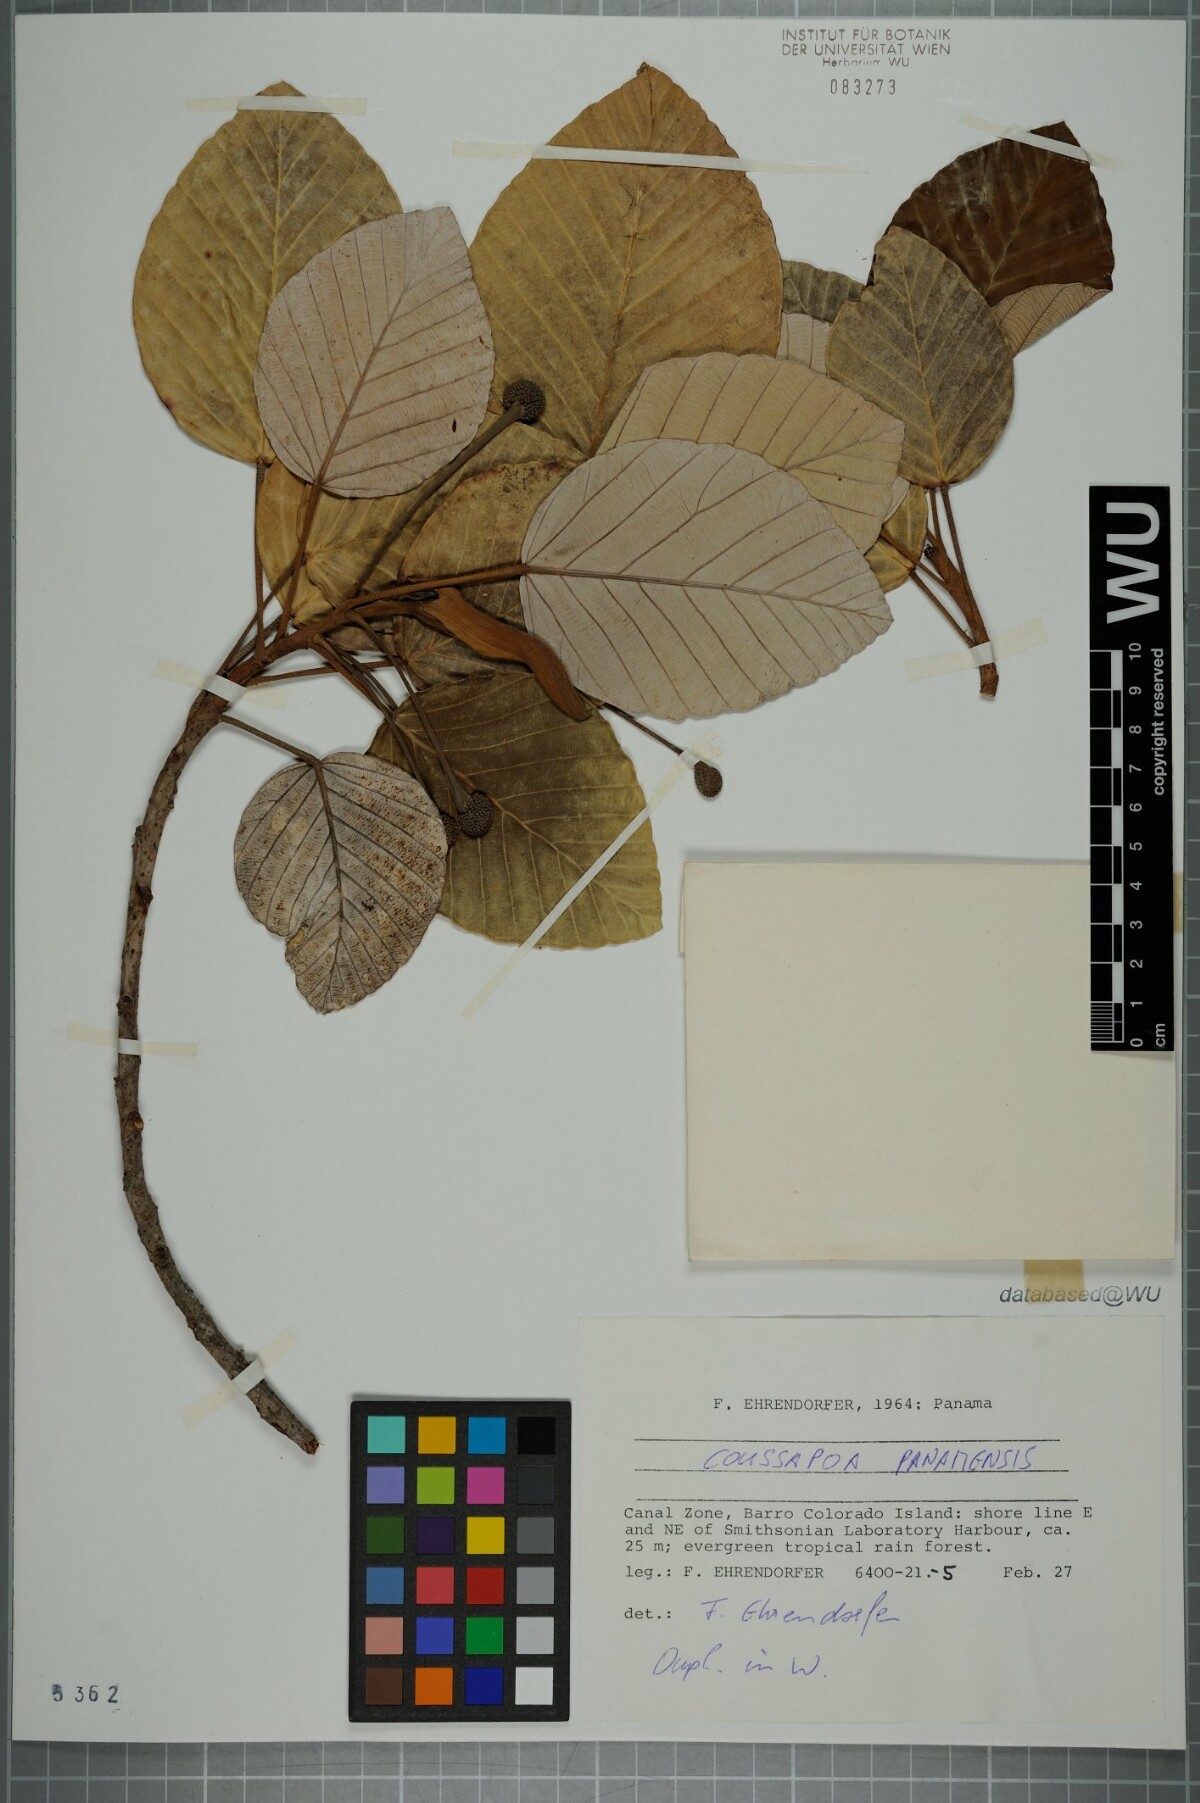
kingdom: Plantae
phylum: Tracheophyta
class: Magnoliopsida
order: Rosales
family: Urticaceae
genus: Coussapoa
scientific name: Coussapoa villosa
